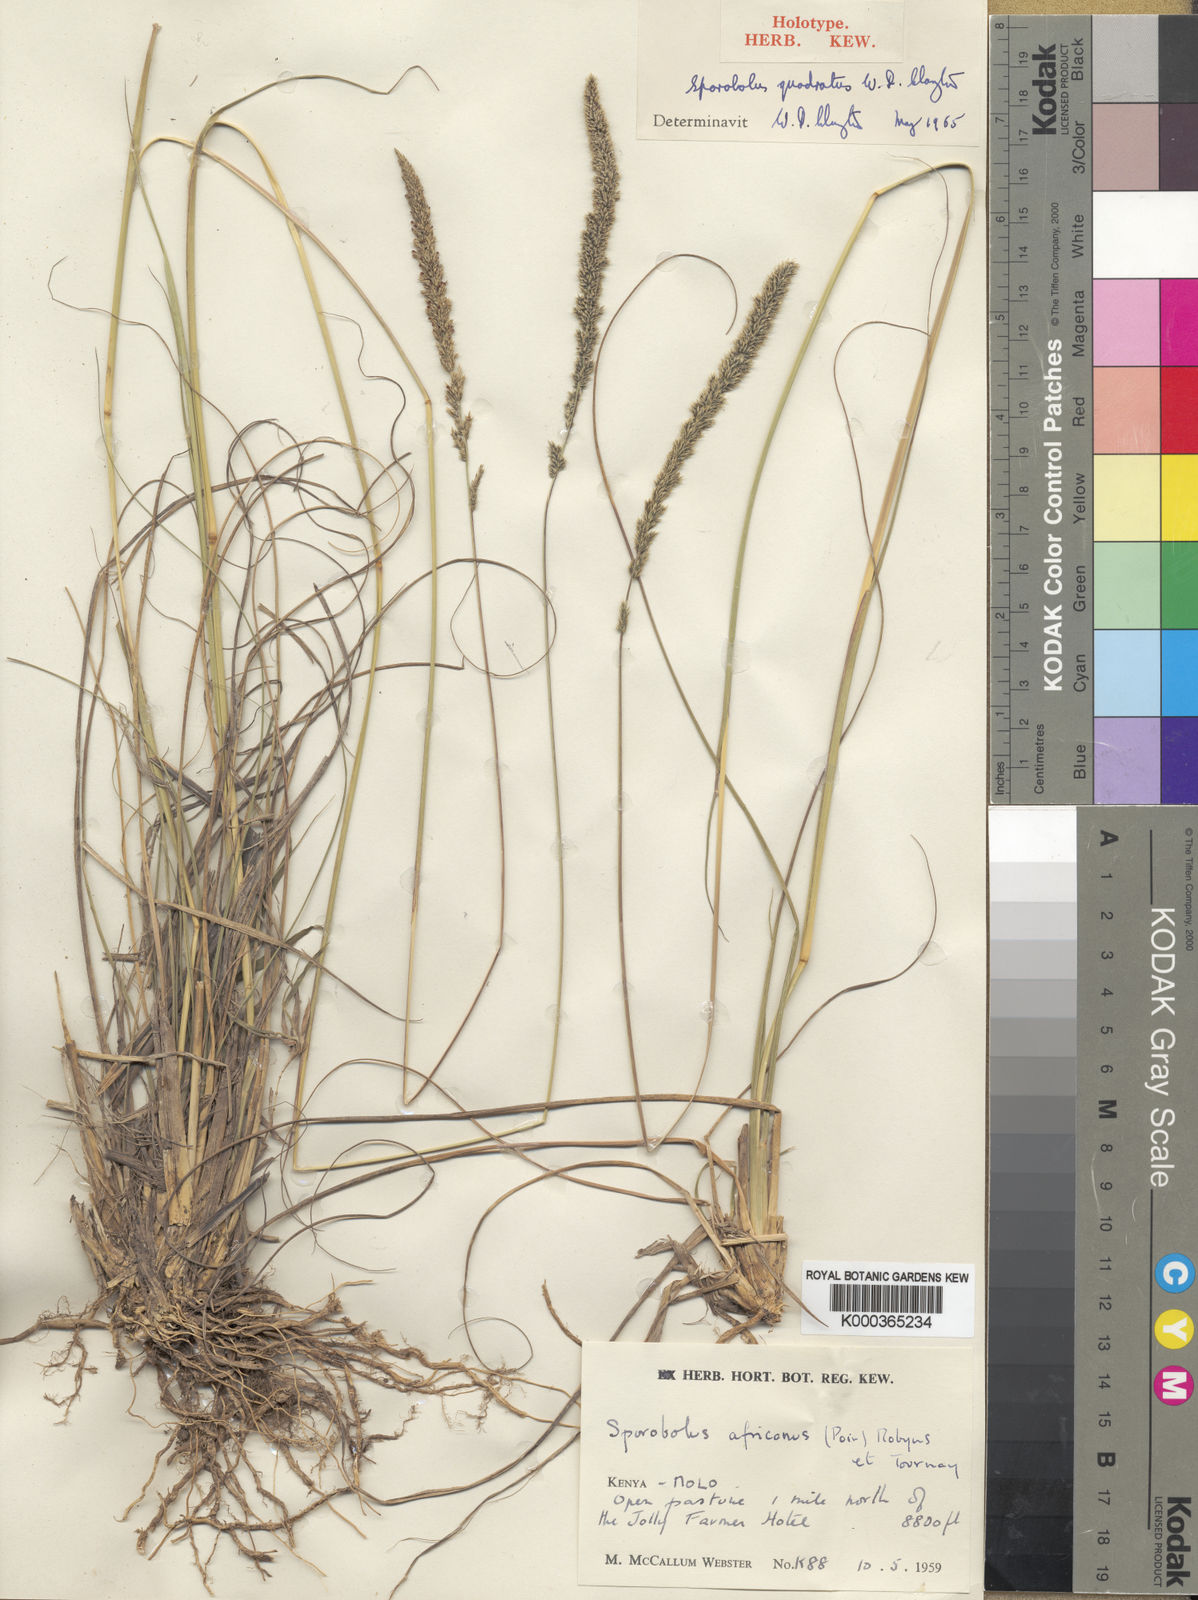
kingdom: Plantae
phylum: Tracheophyta
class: Liliopsida
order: Poales
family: Poaceae
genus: Sporobolus
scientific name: Sporobolus quadratus
